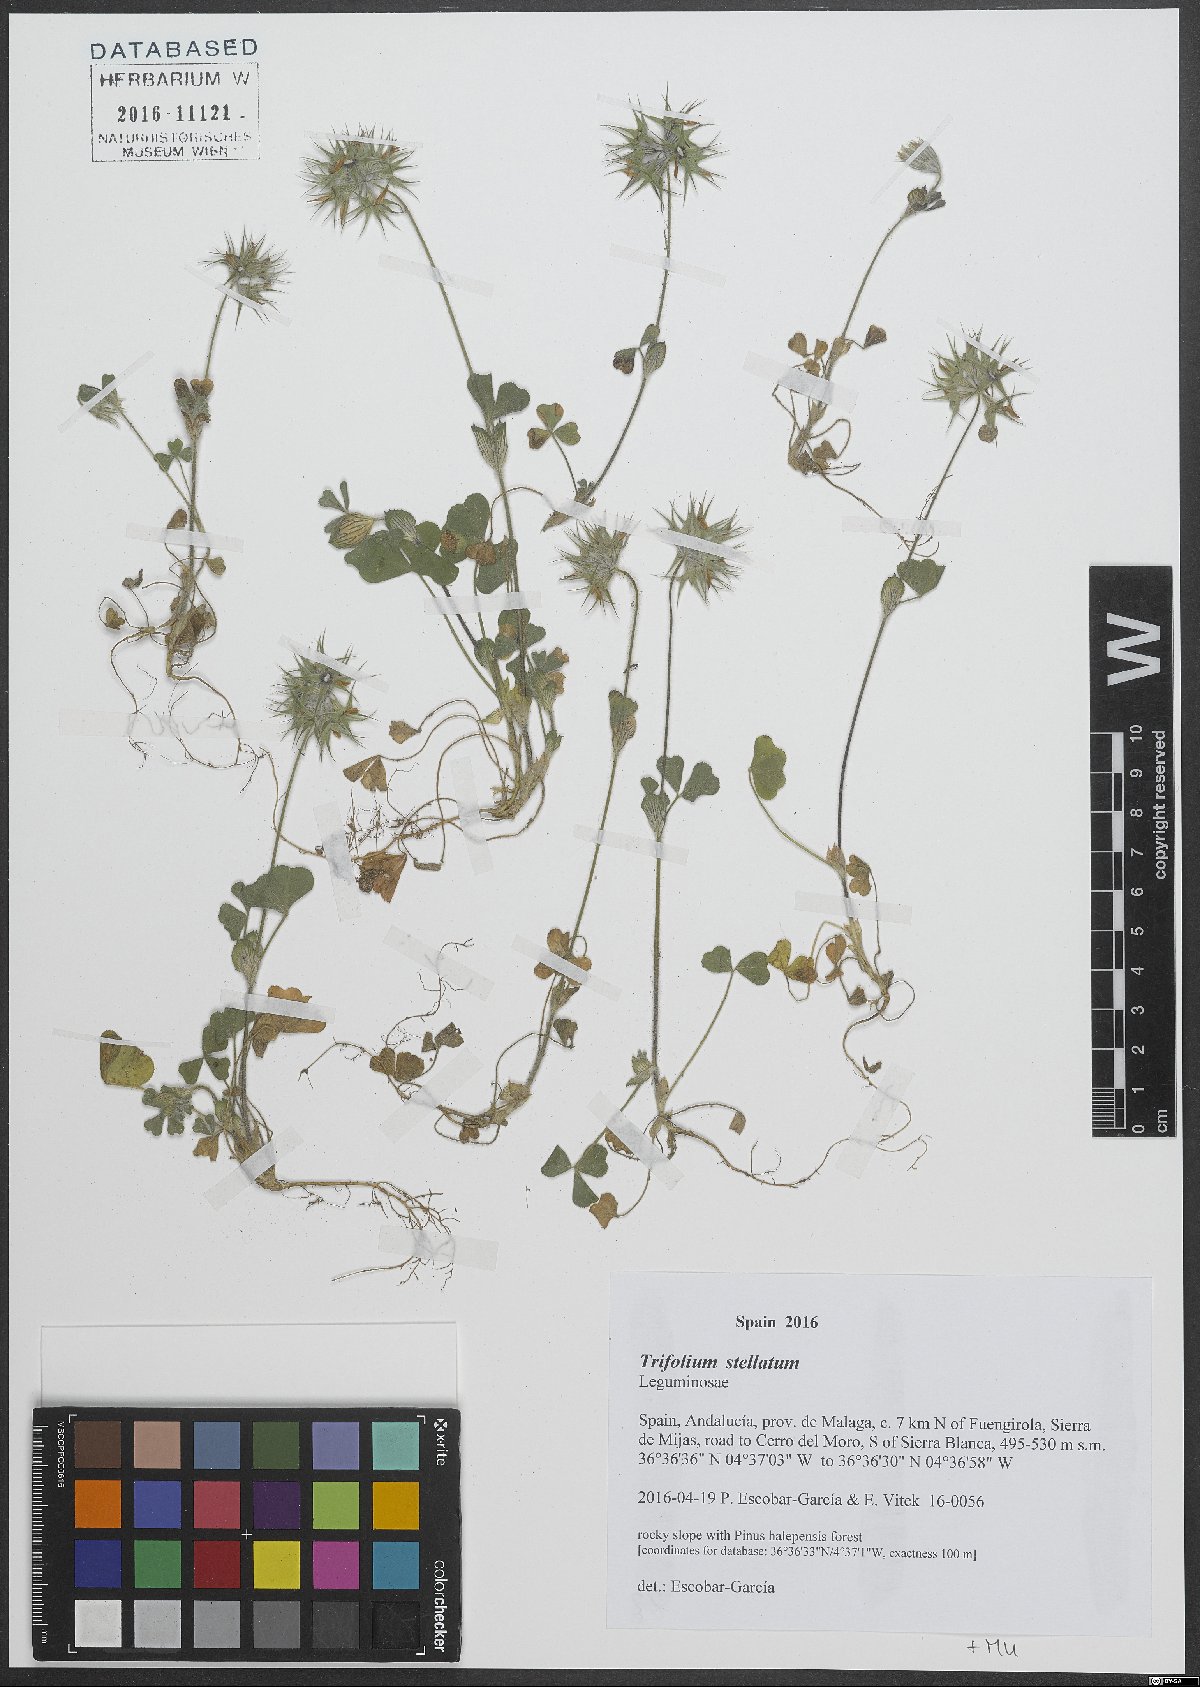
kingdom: Plantae
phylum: Tracheophyta
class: Magnoliopsida
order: Fabales
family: Fabaceae
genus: Trifolium
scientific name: Trifolium stellatum
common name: Starry clover
